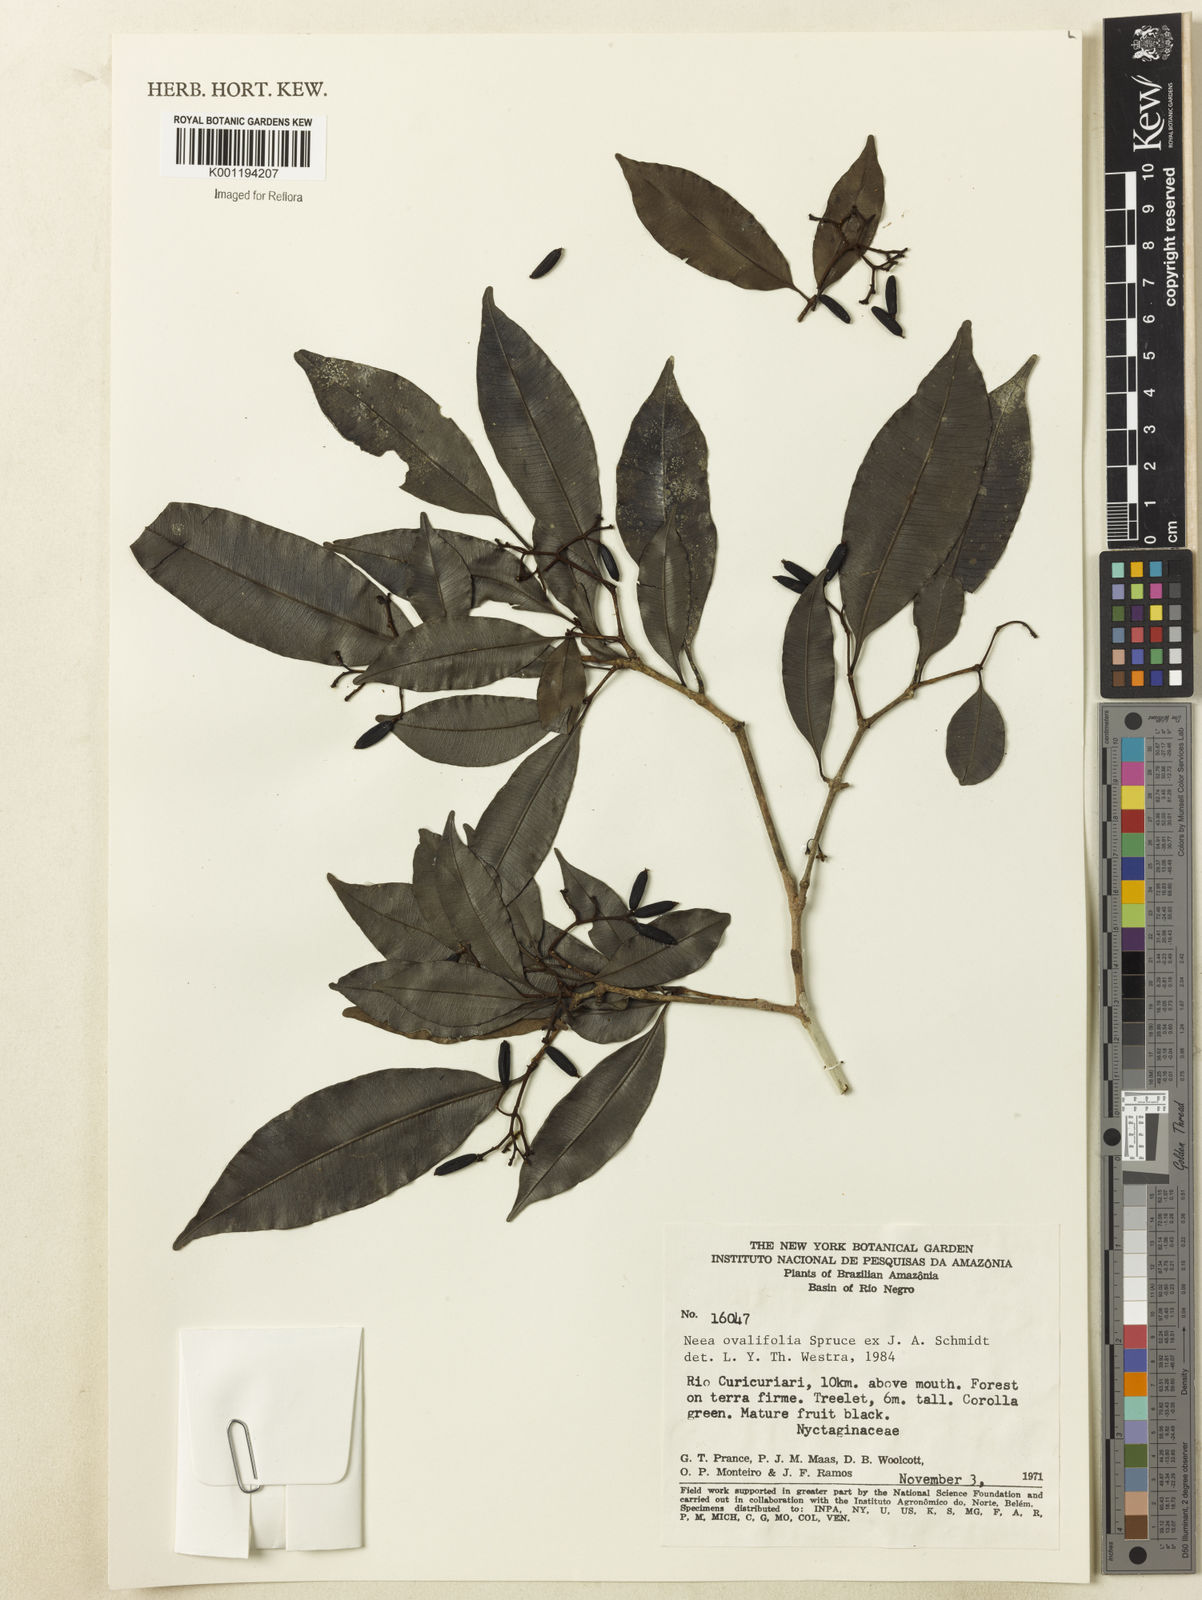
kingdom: Plantae
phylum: Tracheophyta
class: Magnoliopsida
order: Caryophyllales
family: Nyctaginaceae
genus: Neea
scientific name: Neea ovalifolia
